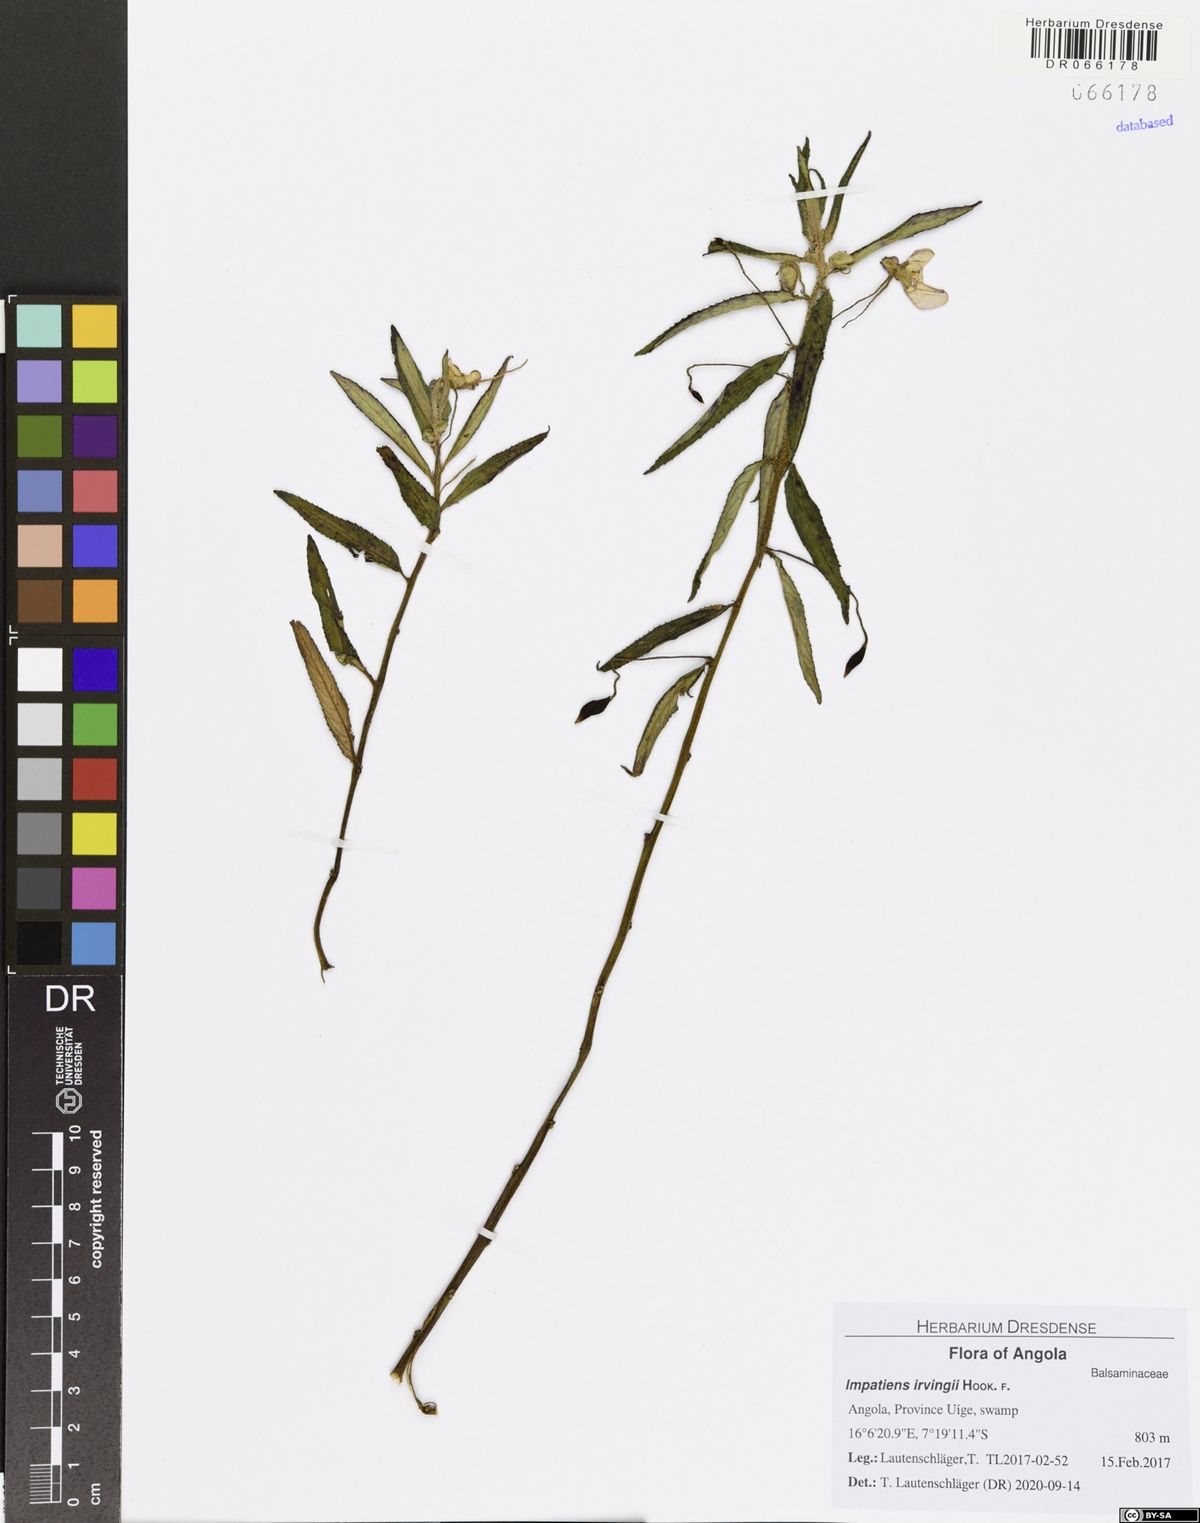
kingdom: Plantae
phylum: Tracheophyta
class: Magnoliopsida
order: Ericales
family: Balsaminaceae
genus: Impatiens
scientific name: Impatiens irvingii
